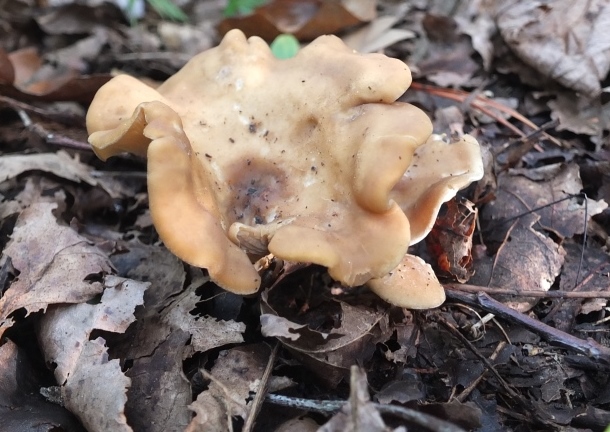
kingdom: Fungi
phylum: Basidiomycota
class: Agaricomycetes
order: Agaricales
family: Lyophyllaceae
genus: Calocybe
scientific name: Calocybe hebelomoides
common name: lerbrun fagerhat
